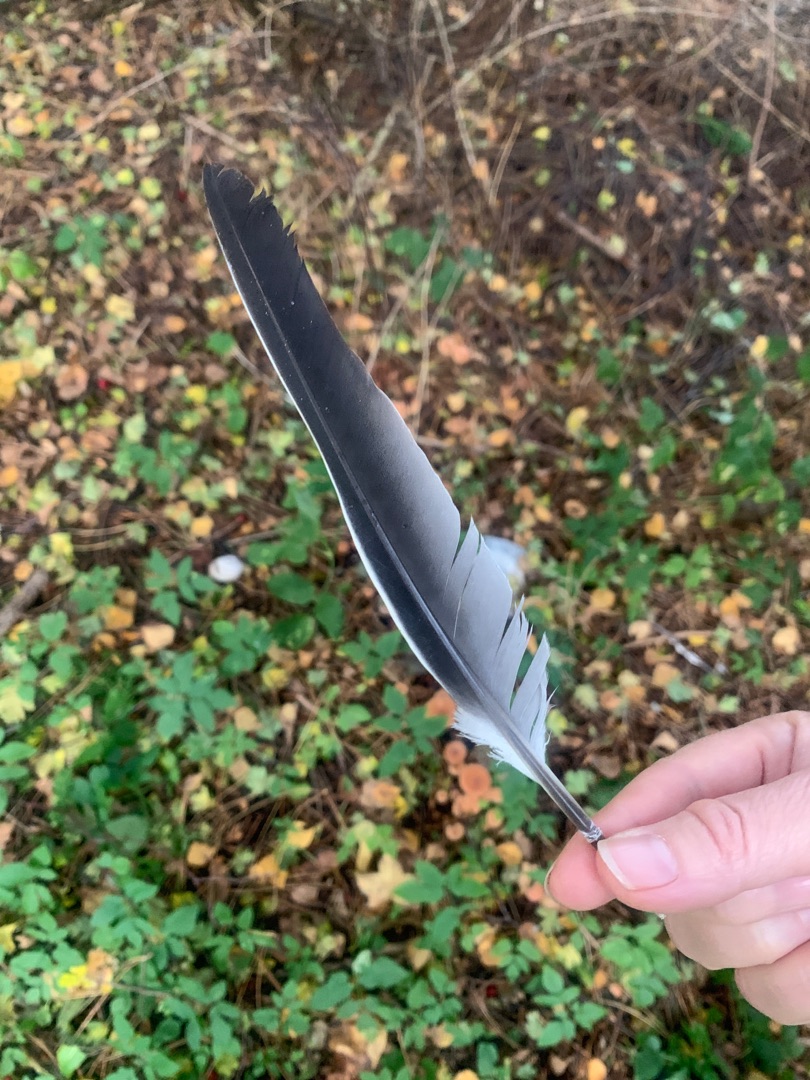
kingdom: Animalia
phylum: Chordata
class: Aves
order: Columbiformes
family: Columbidae
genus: Columba
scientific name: Columba palumbus
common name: Ringdue
